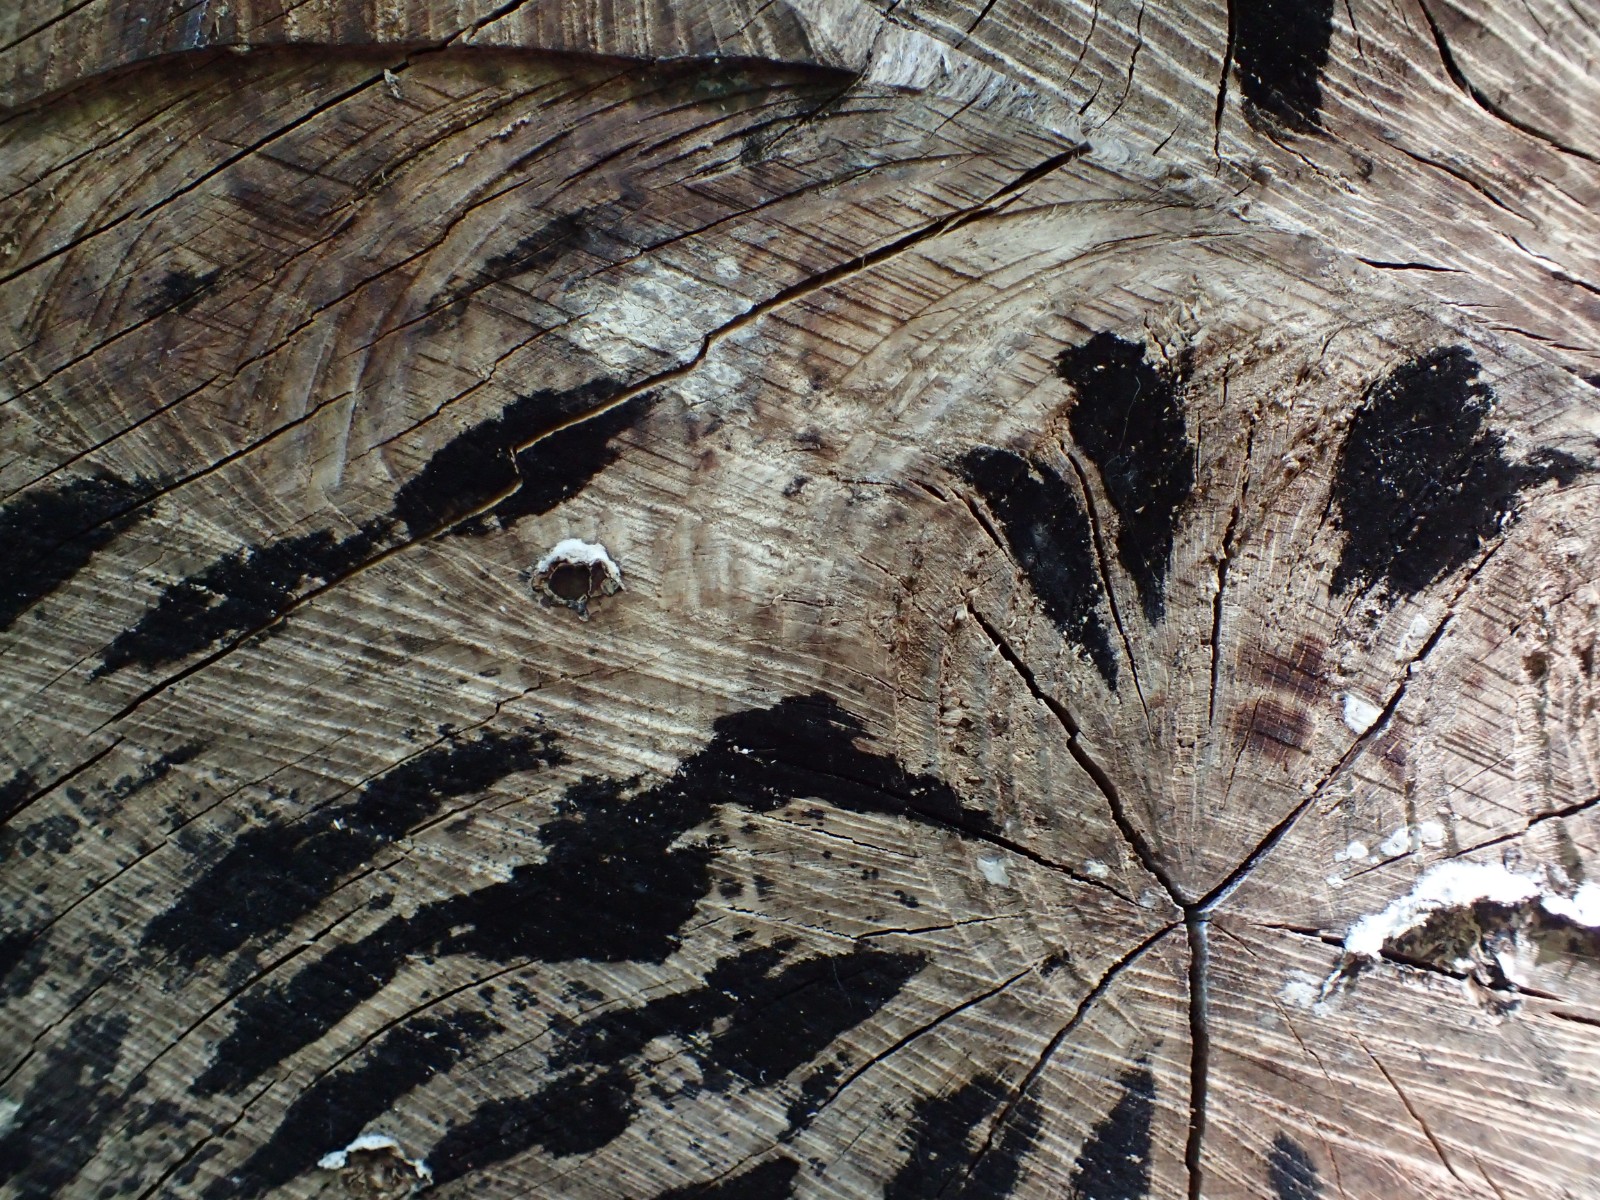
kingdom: Fungi
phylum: Ascomycota
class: Leotiomycetes
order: Helotiales
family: Helotiaceae
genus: Bispora
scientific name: Bispora pallescens
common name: måtte-snitskive
